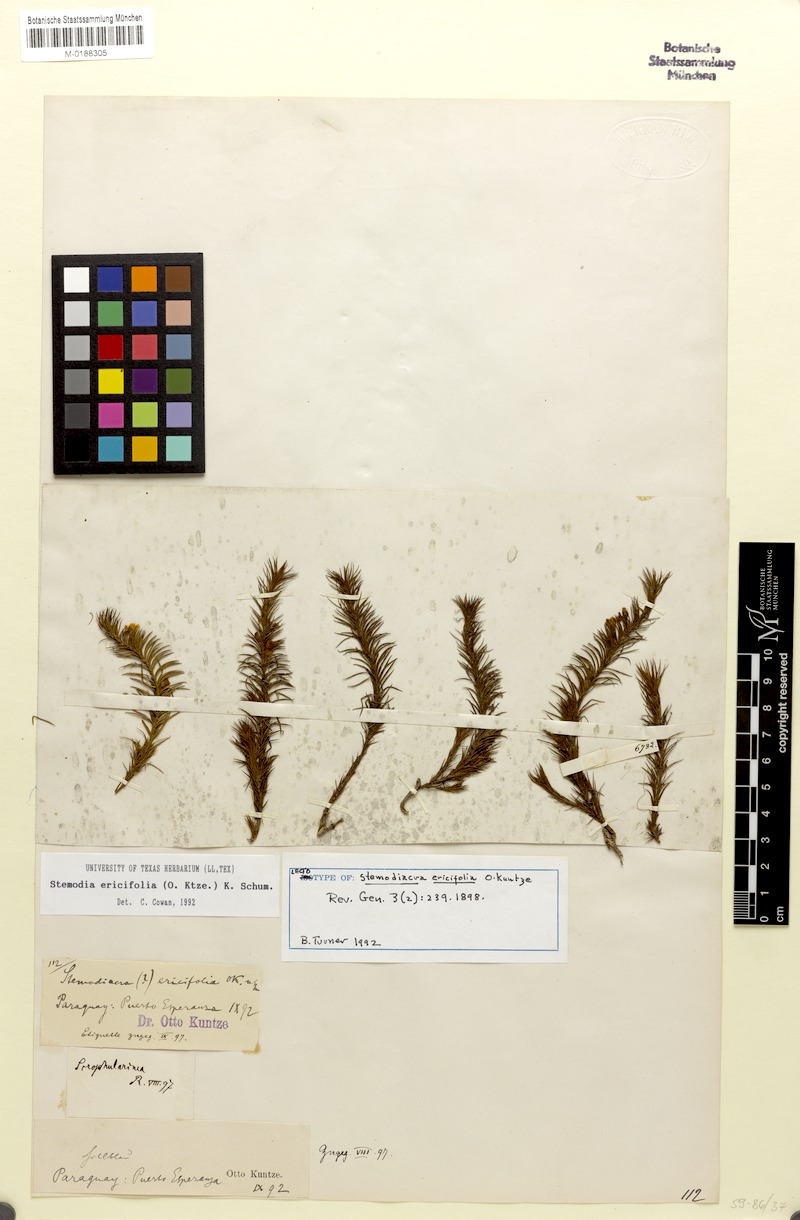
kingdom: Plantae
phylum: Tracheophyta
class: Magnoliopsida
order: Lamiales
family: Plantaginaceae
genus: Stemodia
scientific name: Stemodia ericifolia
